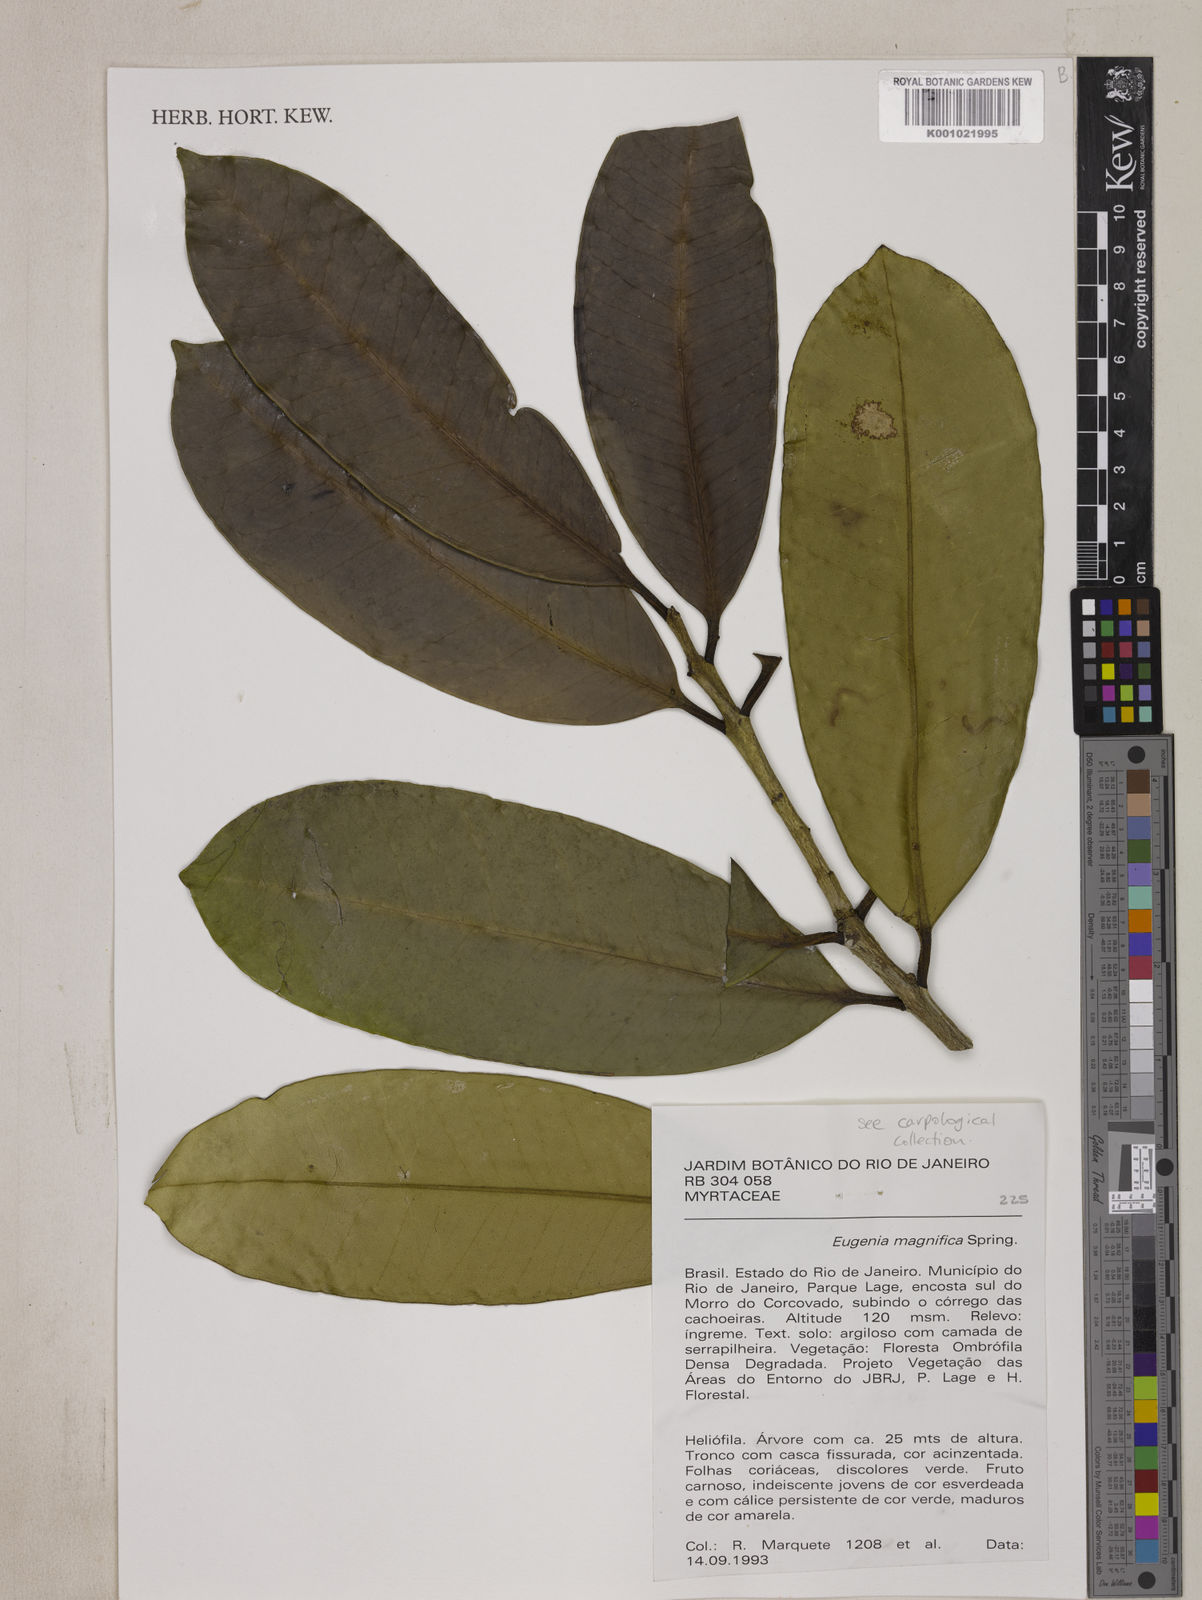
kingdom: Plantae
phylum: Tracheophyta
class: Magnoliopsida
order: Myrtales
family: Myrtaceae
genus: Eugenia
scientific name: Eugenia
